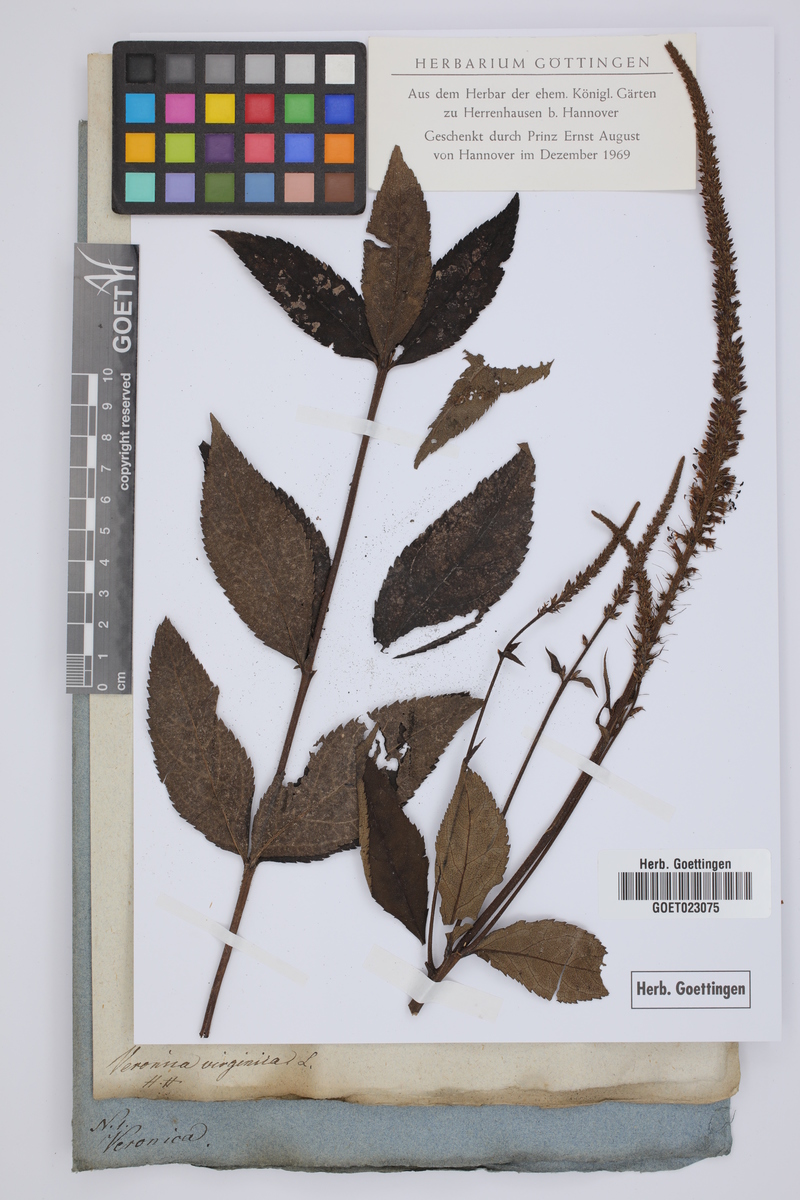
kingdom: Plantae
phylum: Tracheophyta
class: Magnoliopsida
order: Lamiales
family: Plantaginaceae
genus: Veronicastrum
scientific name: Veronicastrum virginicum
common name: Blackroot
